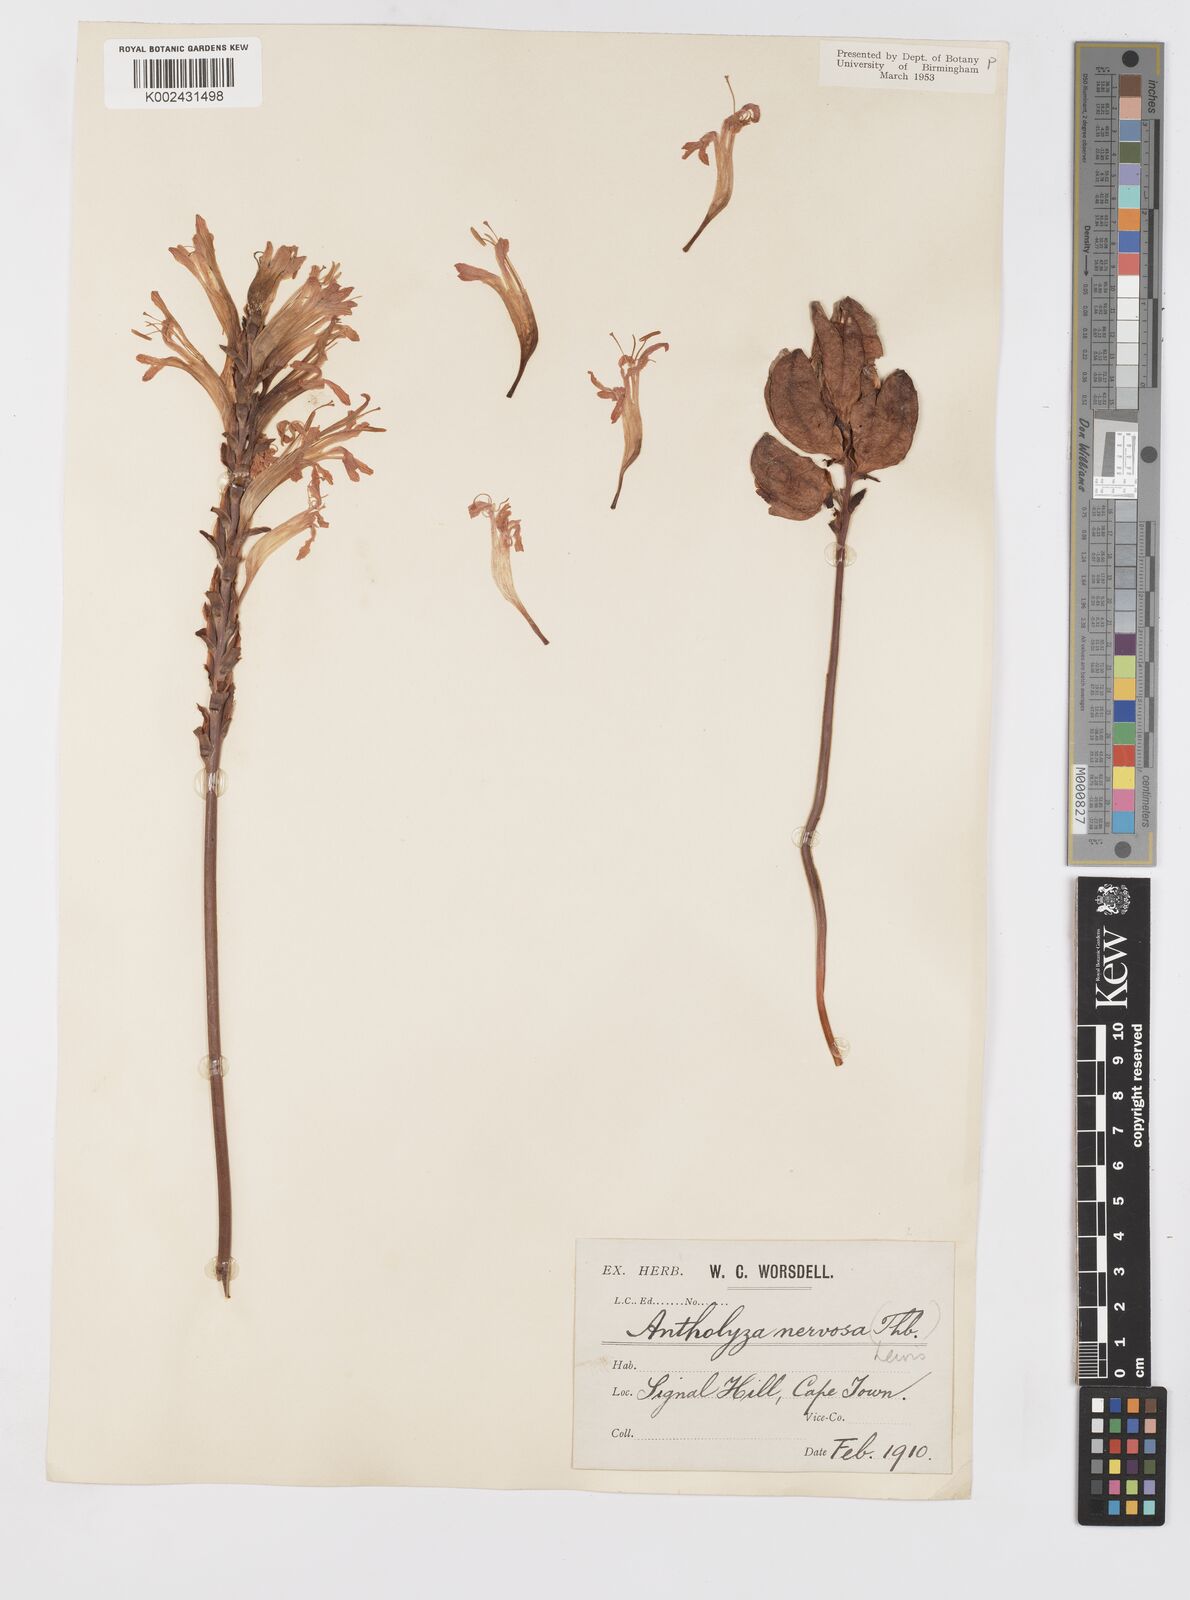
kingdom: Plantae
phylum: Tracheophyta
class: Liliopsida
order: Asparagales
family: Iridaceae
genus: Tritoniopsis
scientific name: Tritoniopsis nervosa
